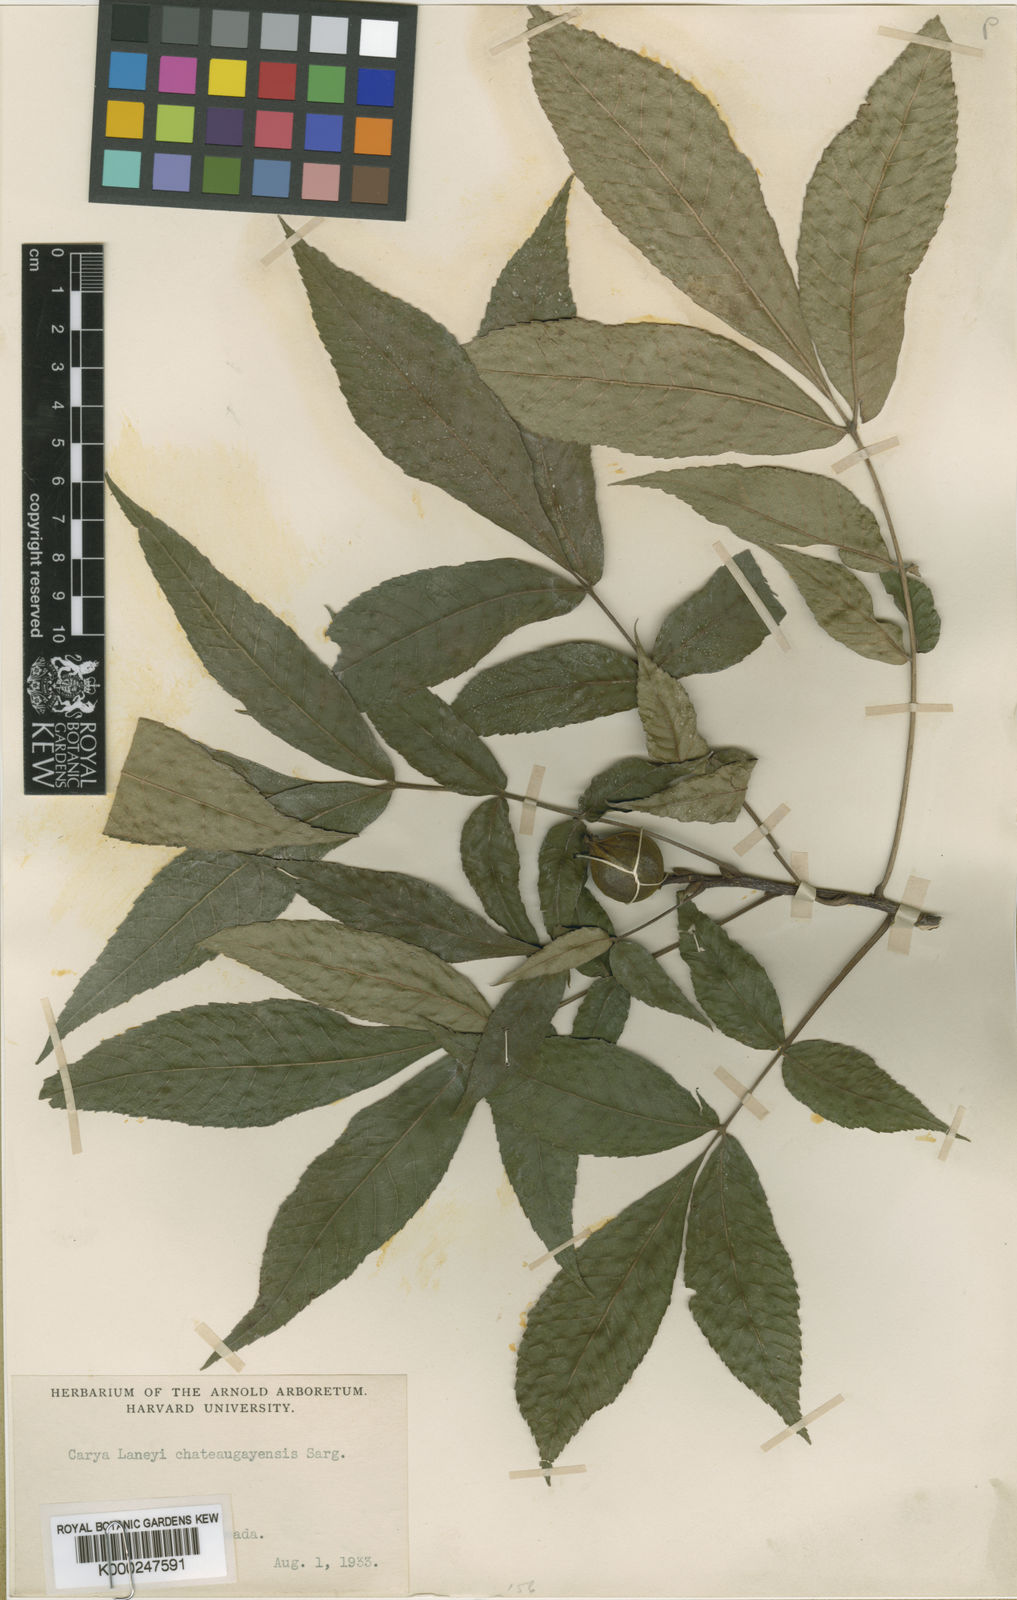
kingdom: Plantae
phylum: Tracheophyta
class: Magnoliopsida
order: Fagales
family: Juglandaceae
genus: Carya
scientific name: Carya laneyi
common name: Laney's hickory
